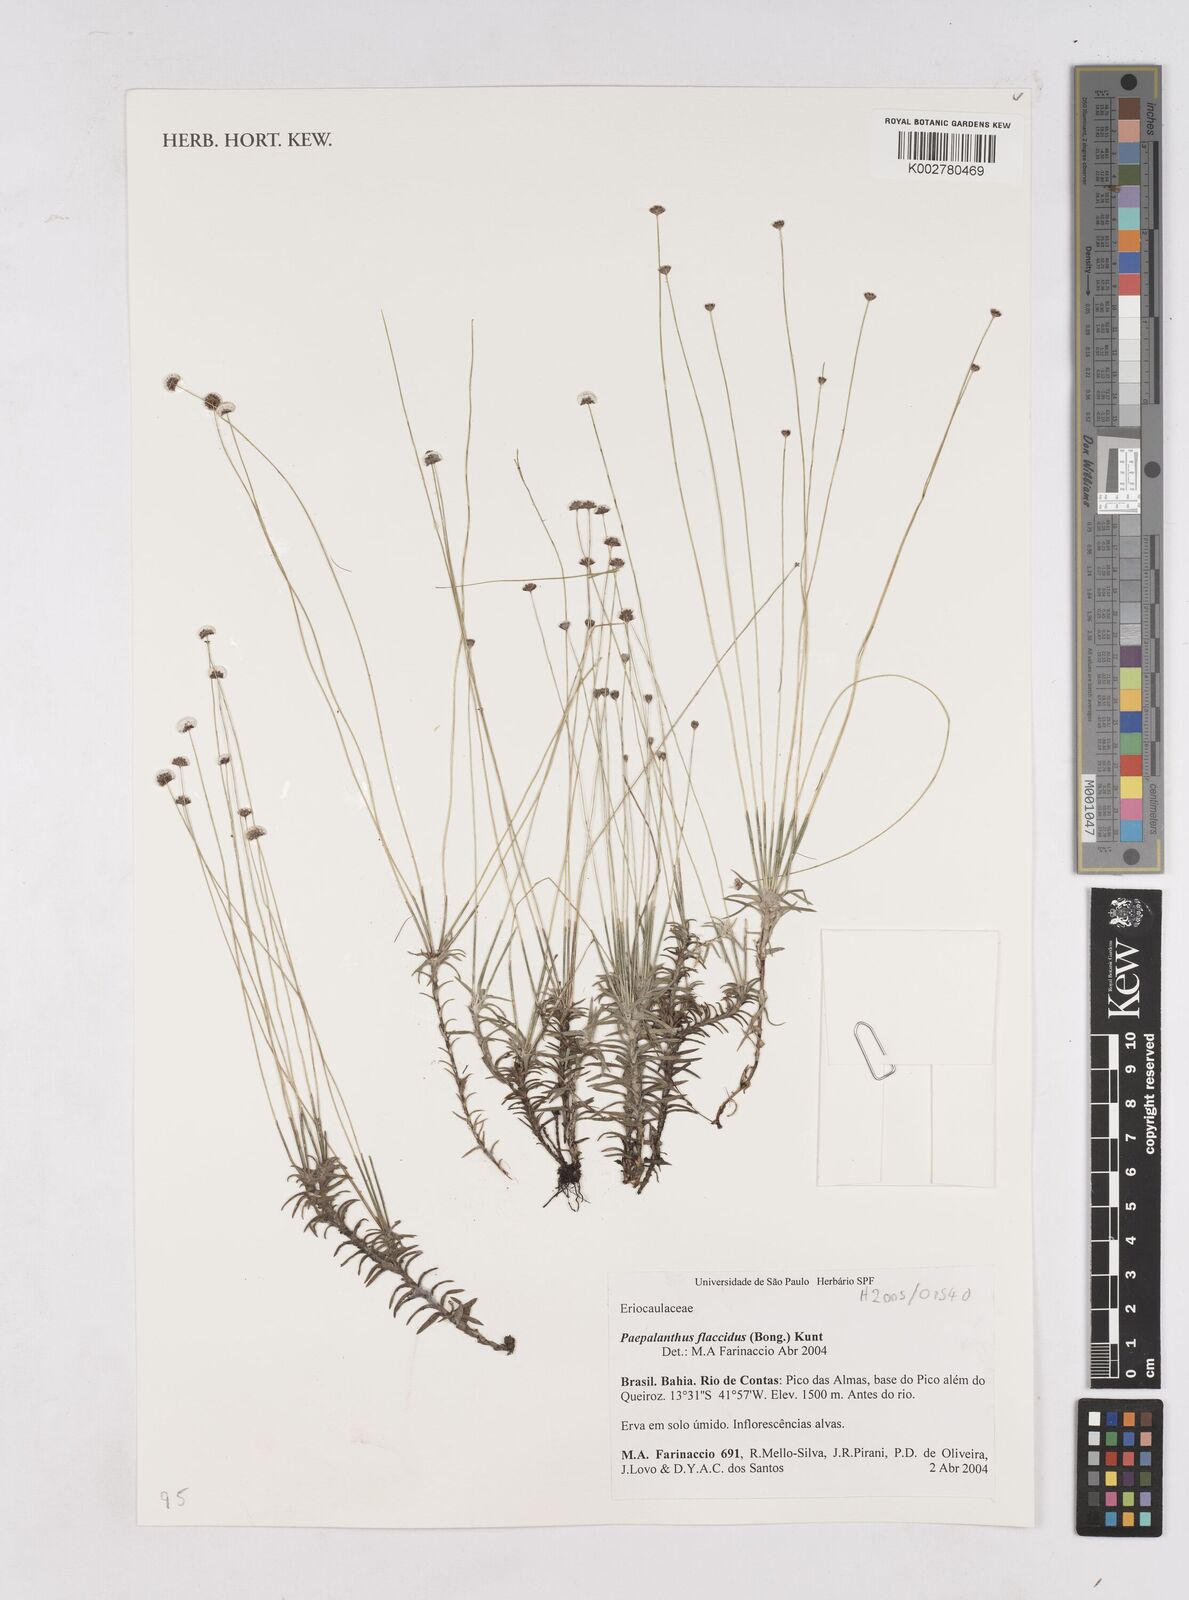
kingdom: Plantae
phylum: Tracheophyta
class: Liliopsida
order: Poales
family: Eriocaulaceae
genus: Paepalanthus
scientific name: Paepalanthus flaccidus
